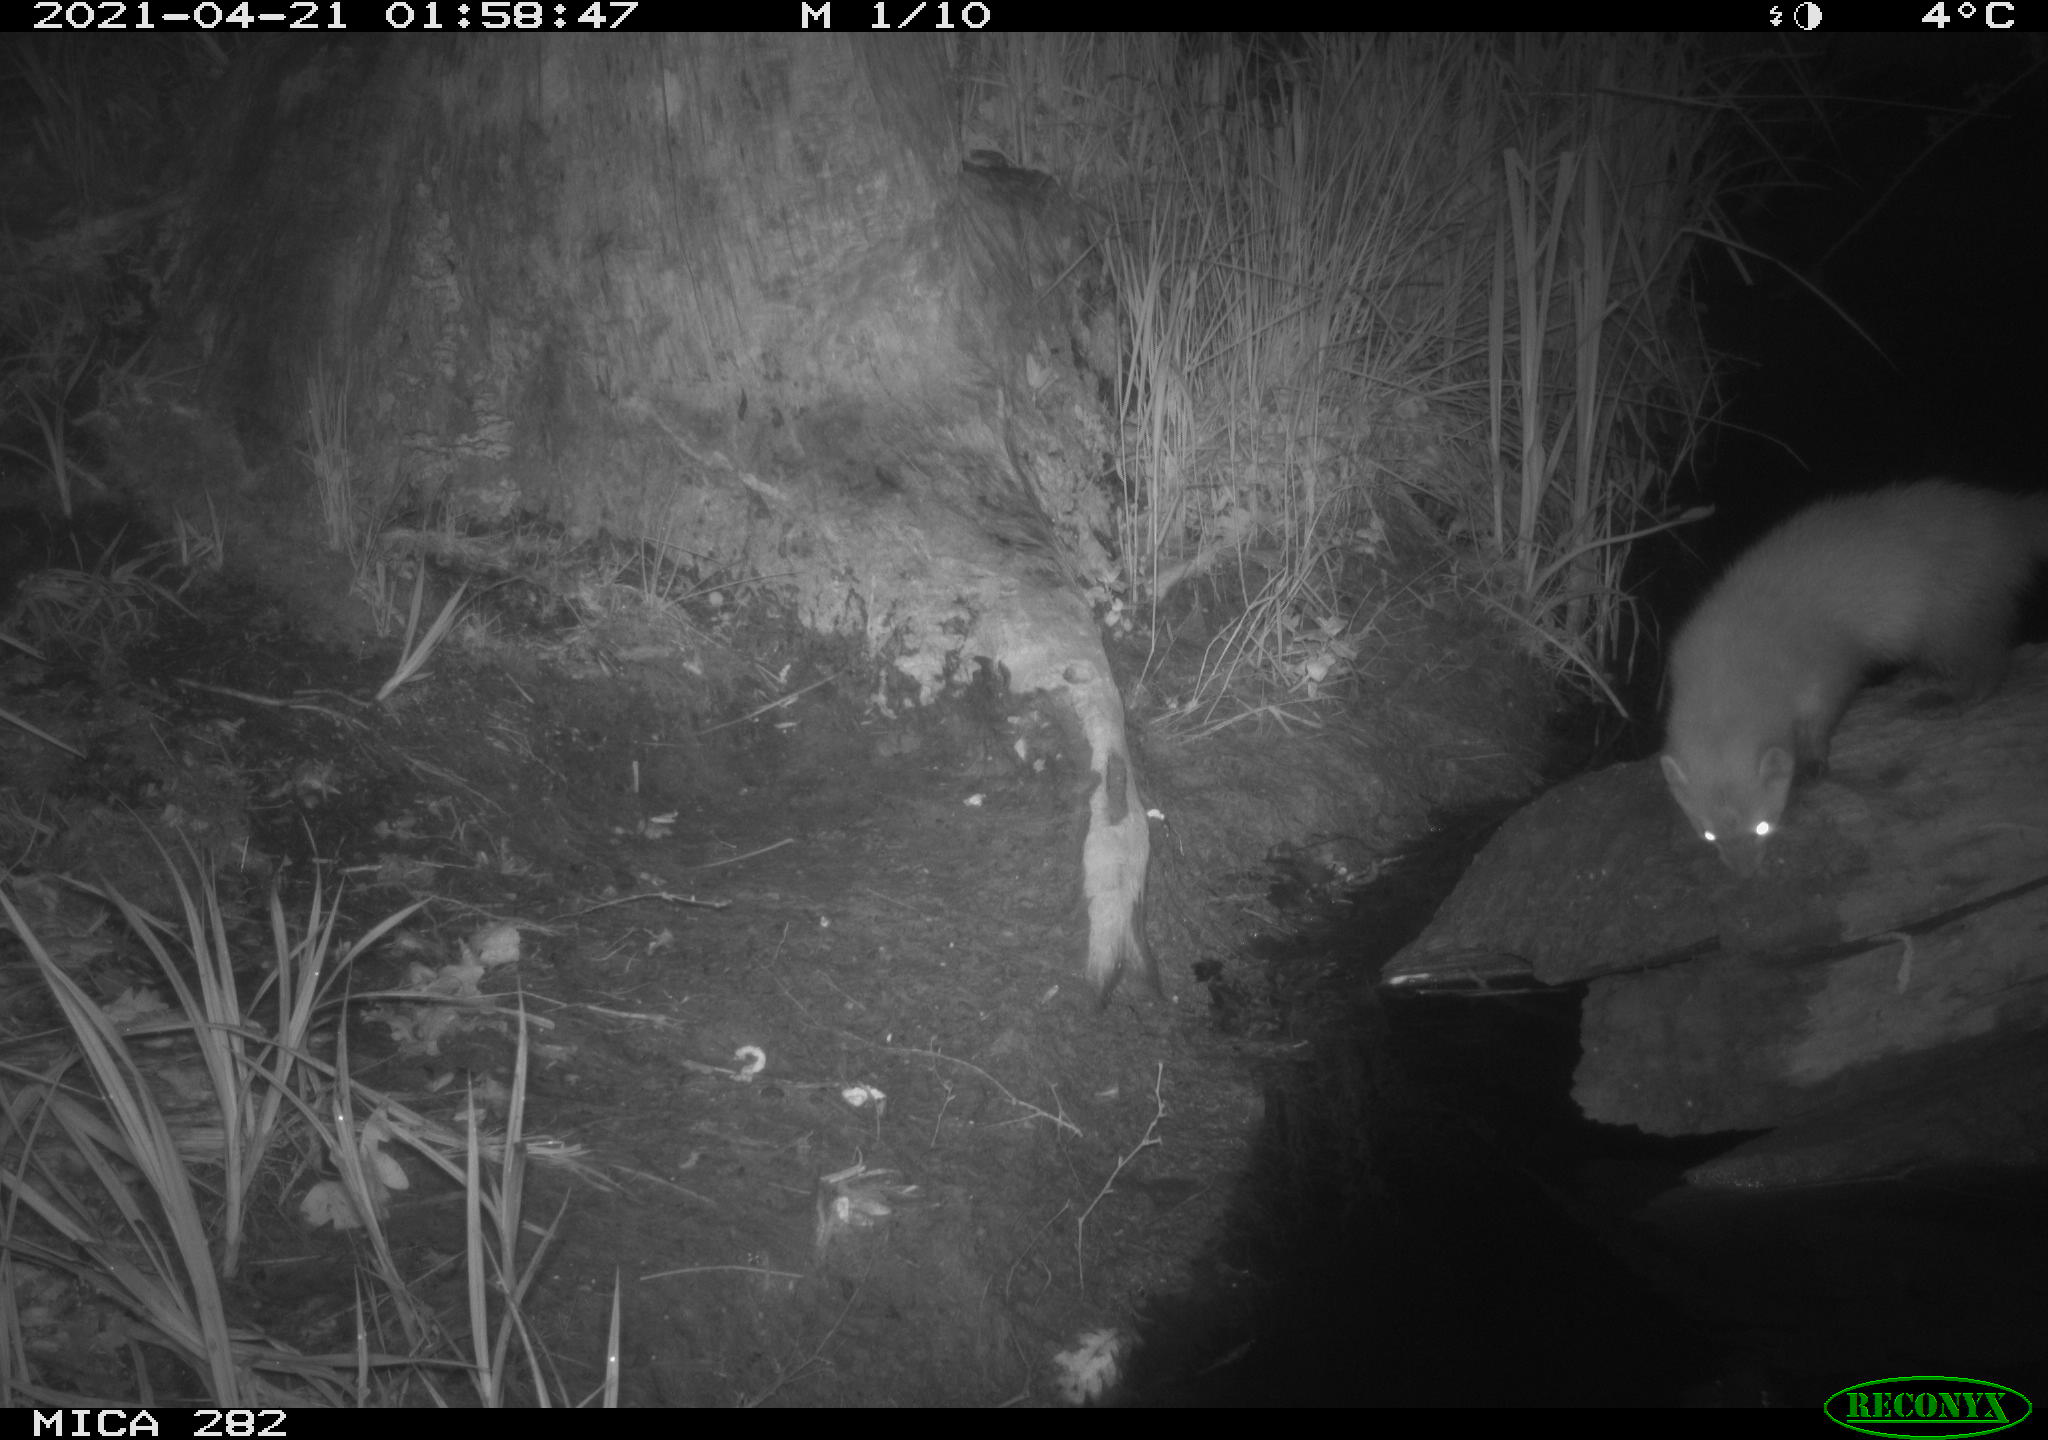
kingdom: Animalia
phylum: Chordata
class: Mammalia
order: Carnivora
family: Mustelidae
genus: Martes
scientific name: Martes foina
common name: Beech marten
